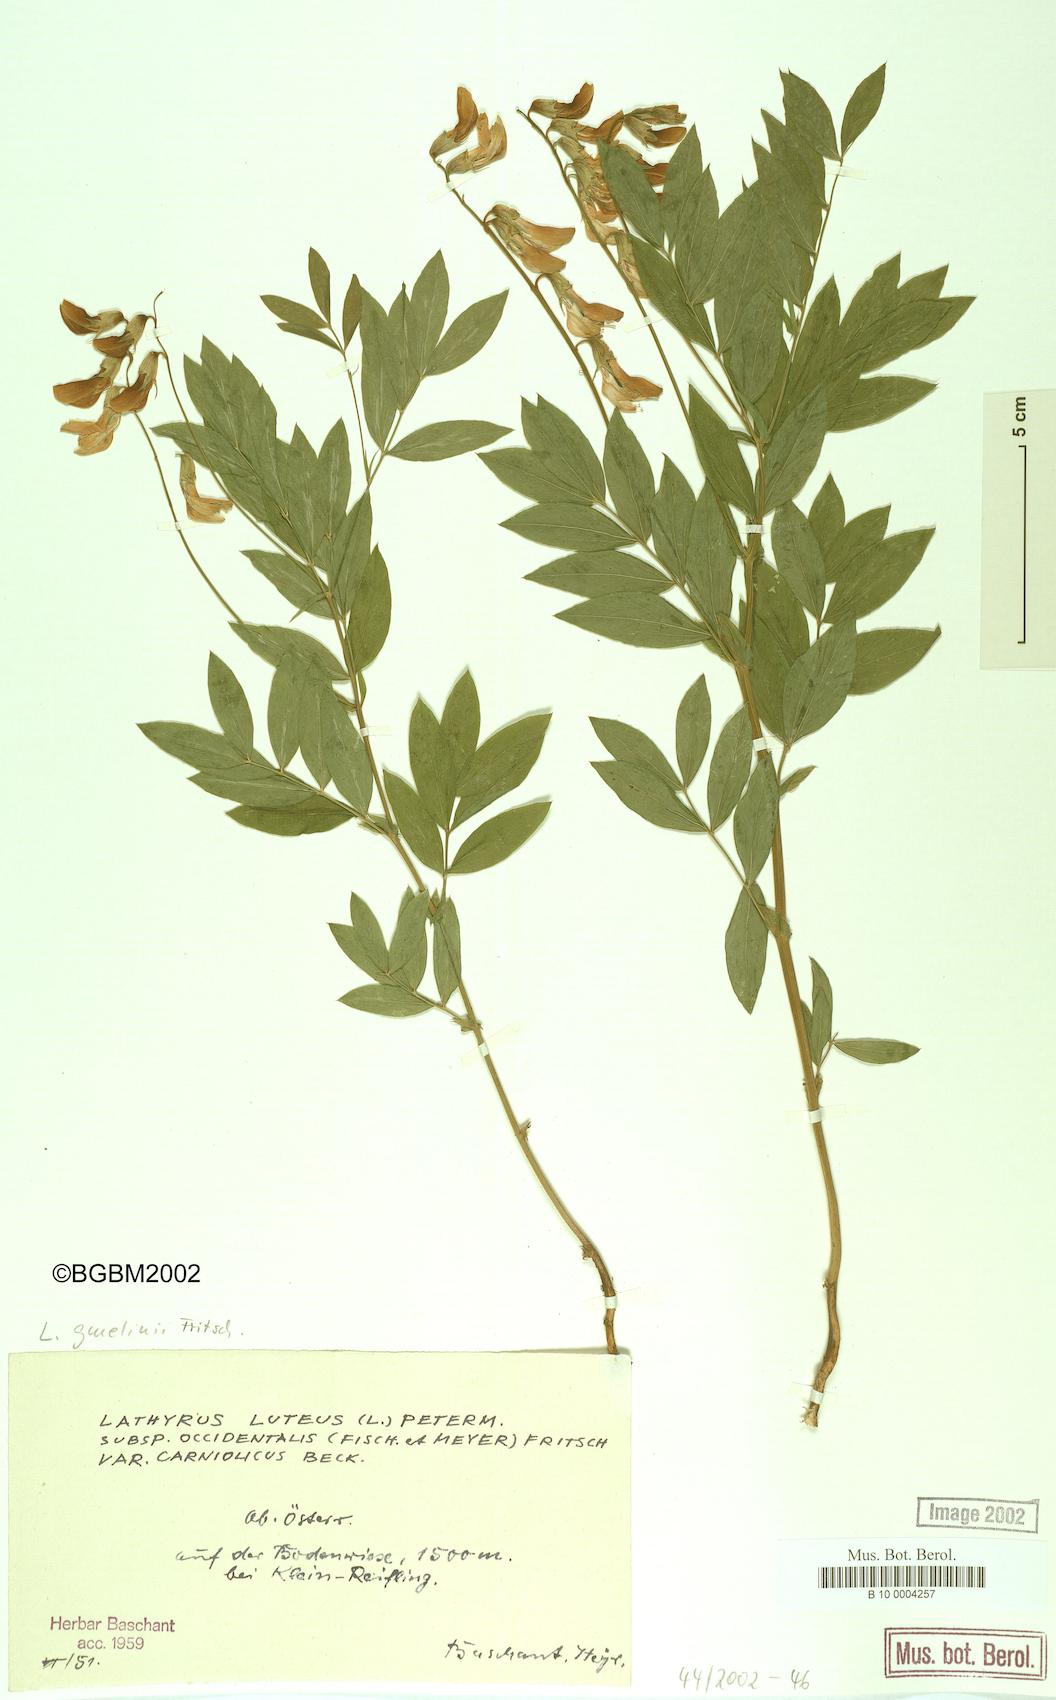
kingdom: Plantae
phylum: Tracheophyta
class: Magnoliopsida
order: Fabales
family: Fabaceae
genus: Lathyrus
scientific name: Lathyrus gmelinii
